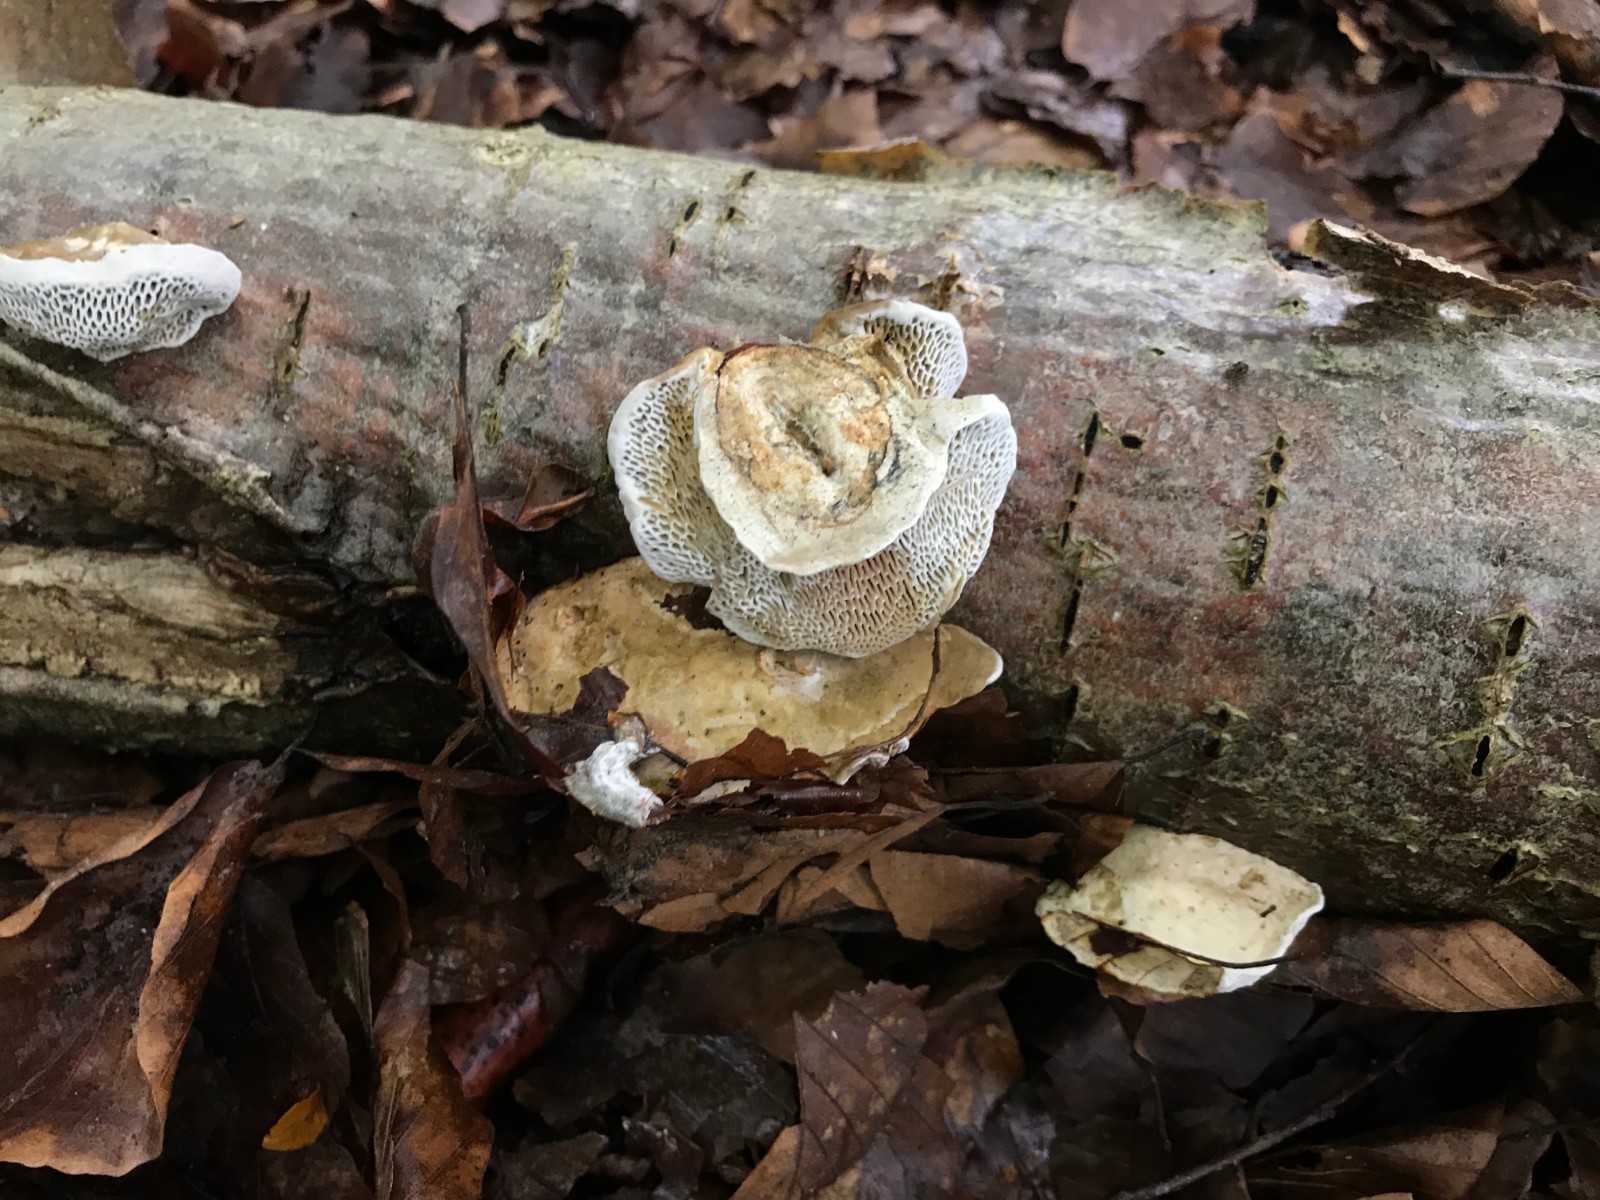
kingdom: Fungi
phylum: Basidiomycota
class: Agaricomycetes
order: Polyporales
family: Polyporaceae
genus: Daedaleopsis
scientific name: Daedaleopsis confragosa
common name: rødmende læderporesvamp
